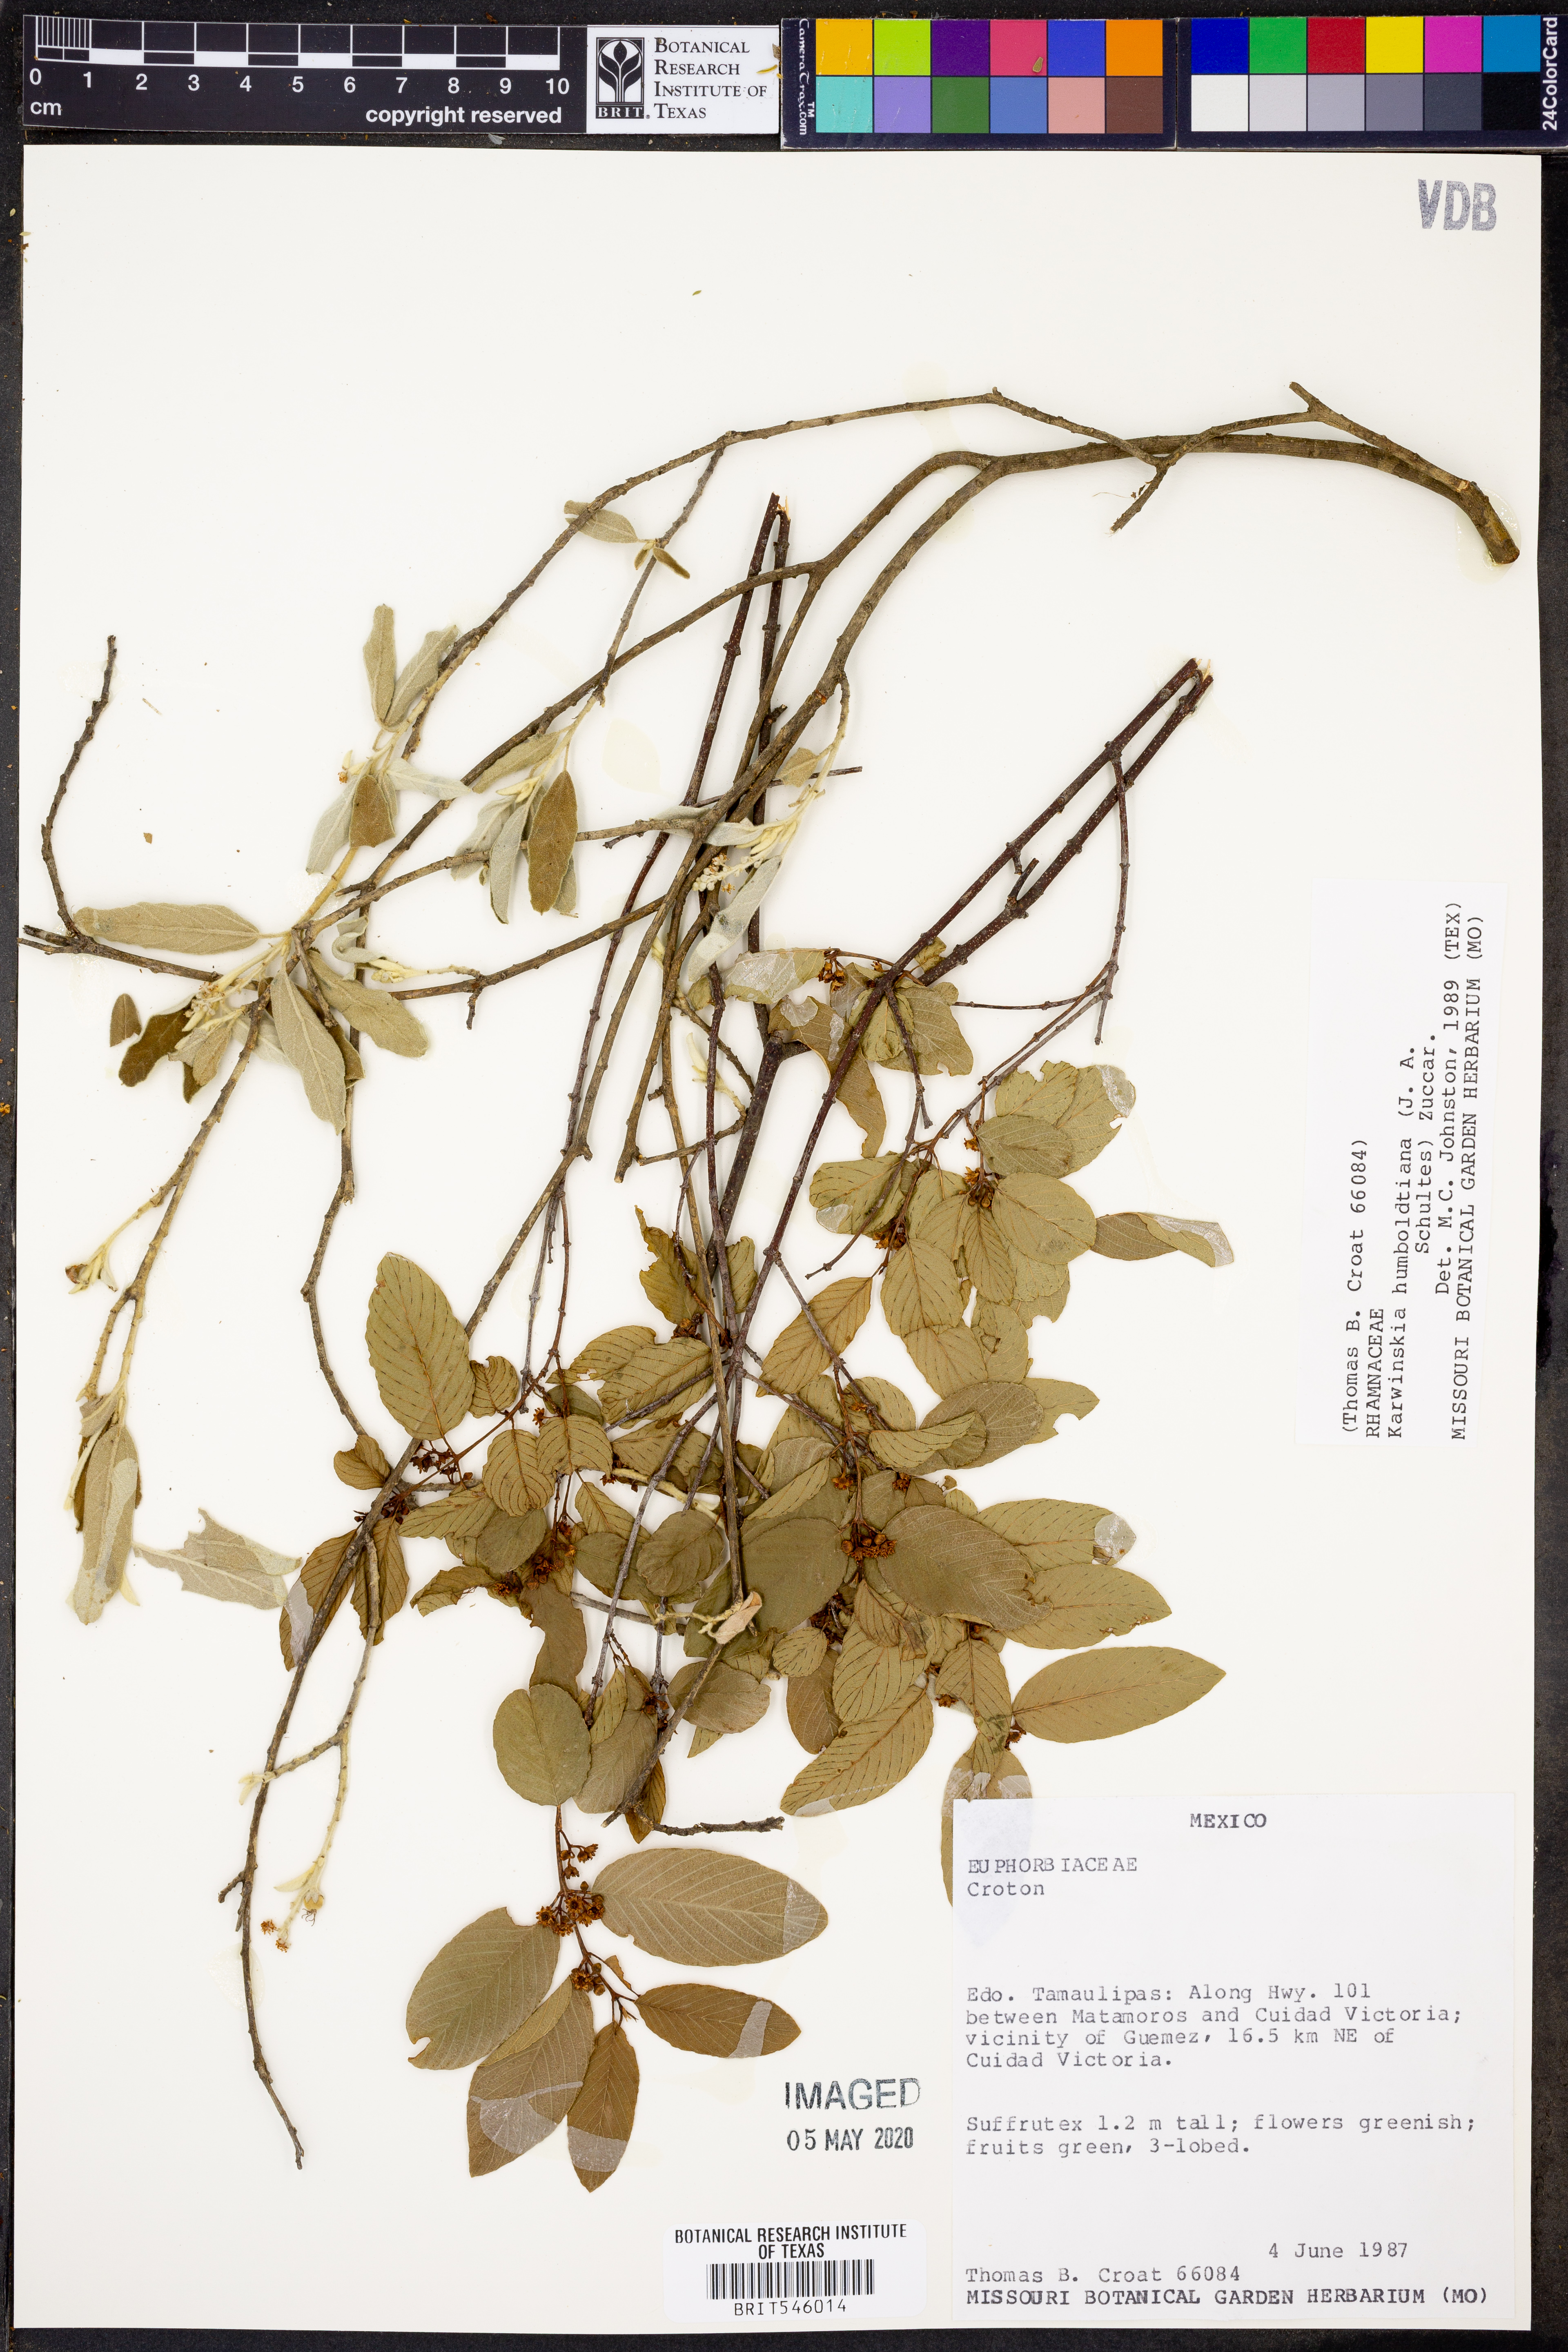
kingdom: Plantae
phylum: Tracheophyta
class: Magnoliopsida
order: Rosales
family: Rhamnaceae
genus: Karwinskia
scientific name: Karwinskia humboldtiana
